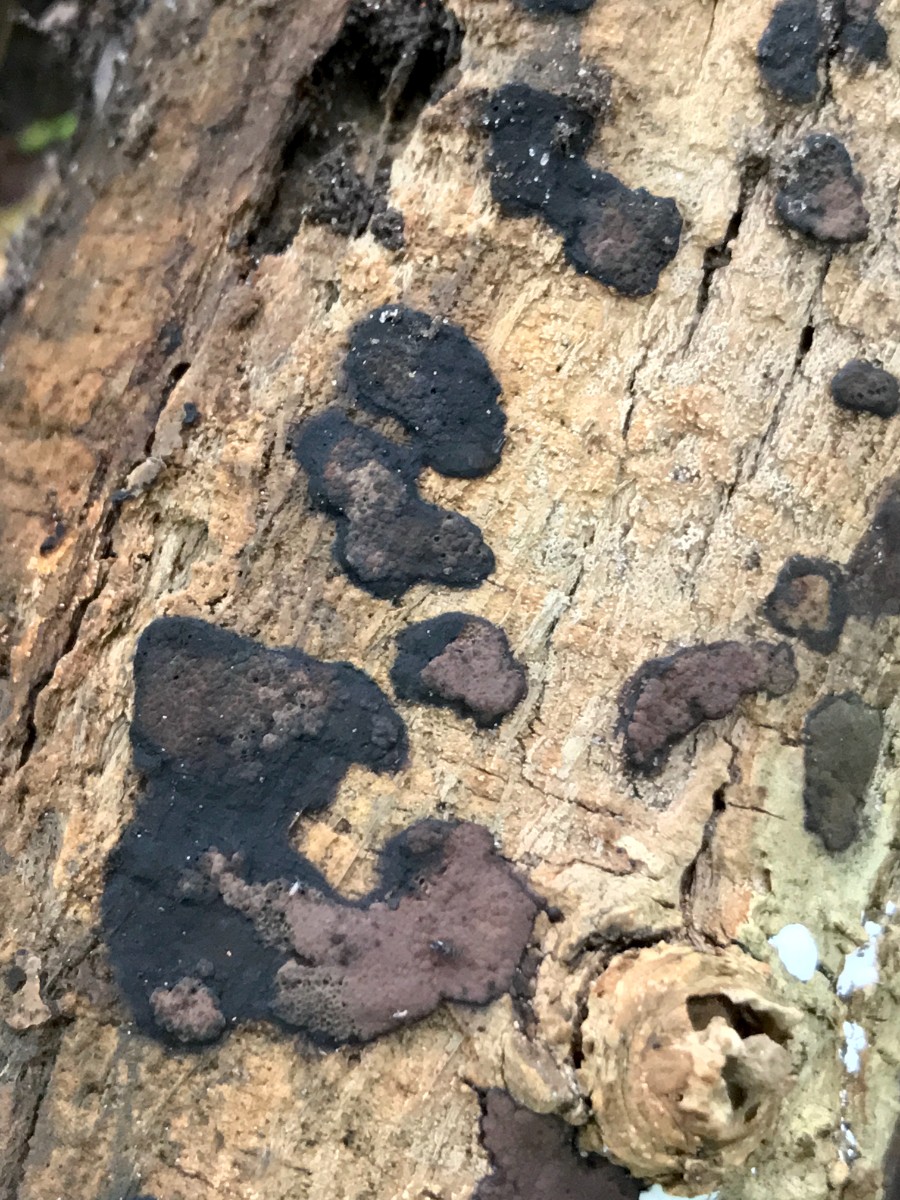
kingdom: Fungi
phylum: Ascomycota
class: Sordariomycetes
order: Xylariales
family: Hypoxylaceae
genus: Hypoxylon
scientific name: Hypoxylon petriniae
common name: nedsænket kulbær
